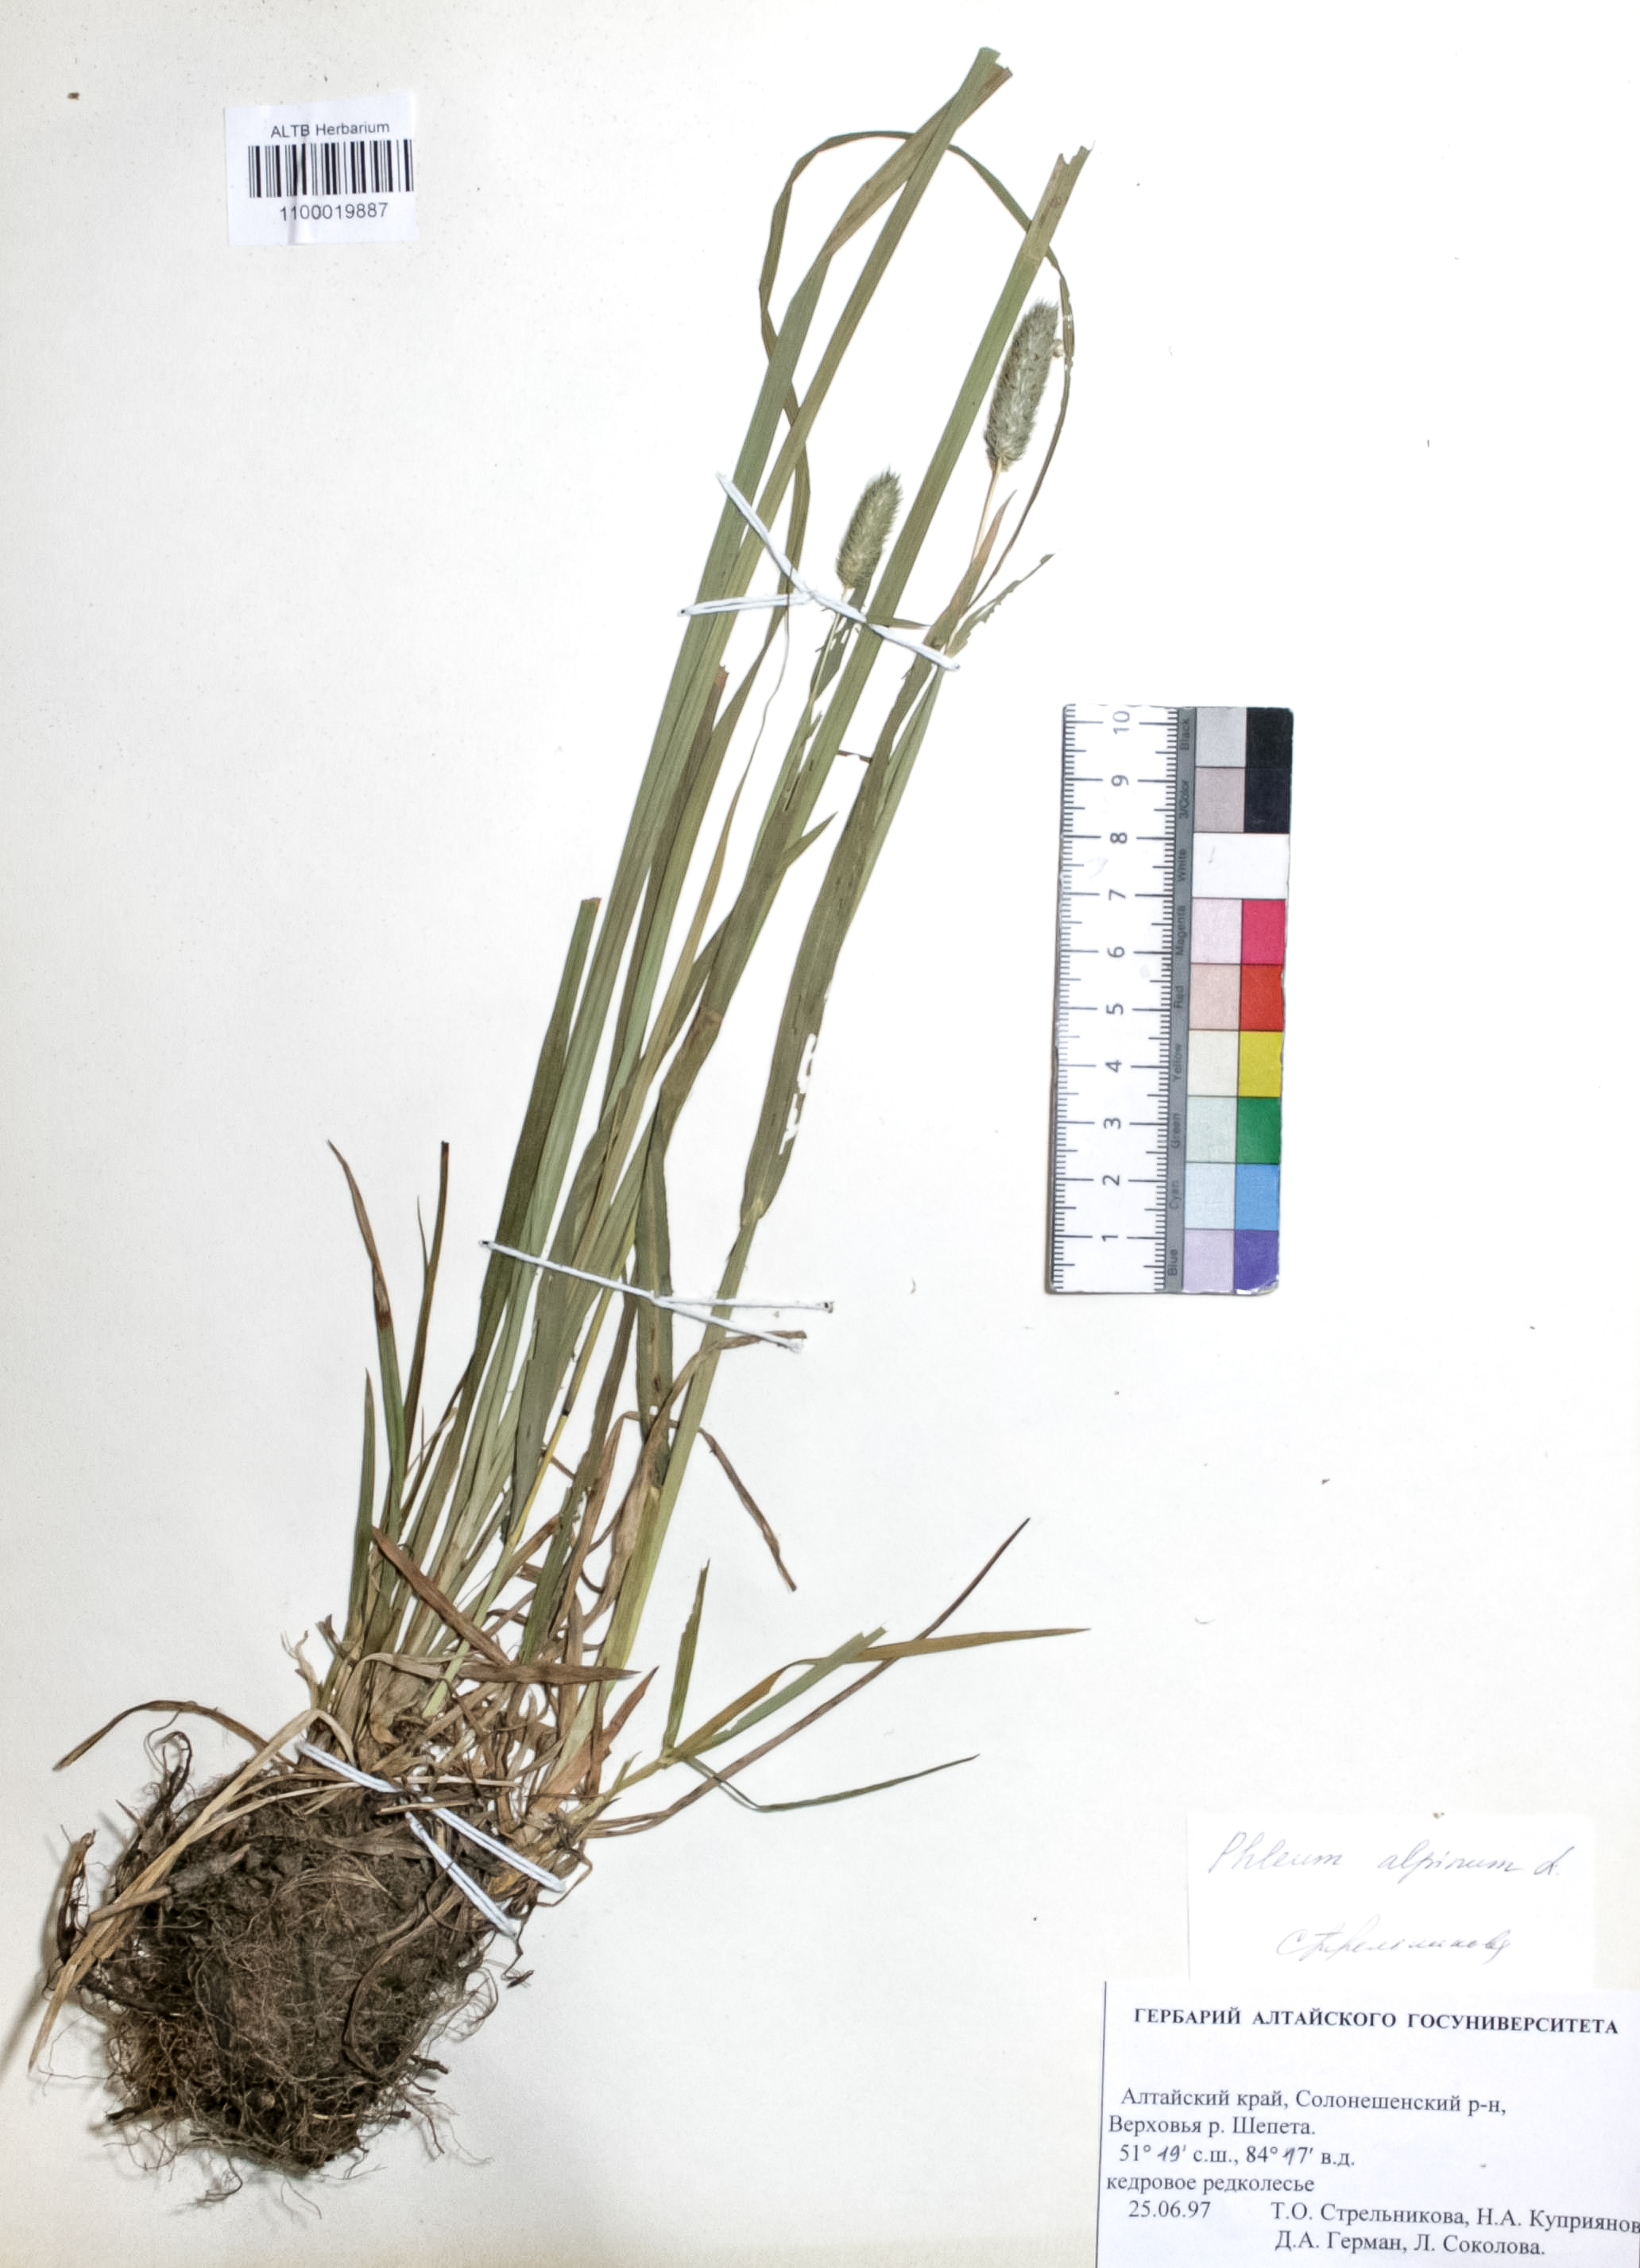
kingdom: Plantae
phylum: Tracheophyta
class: Liliopsida
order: Poales
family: Poaceae
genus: Phleum
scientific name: Phleum alpinum
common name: Alpine cat's-tail
